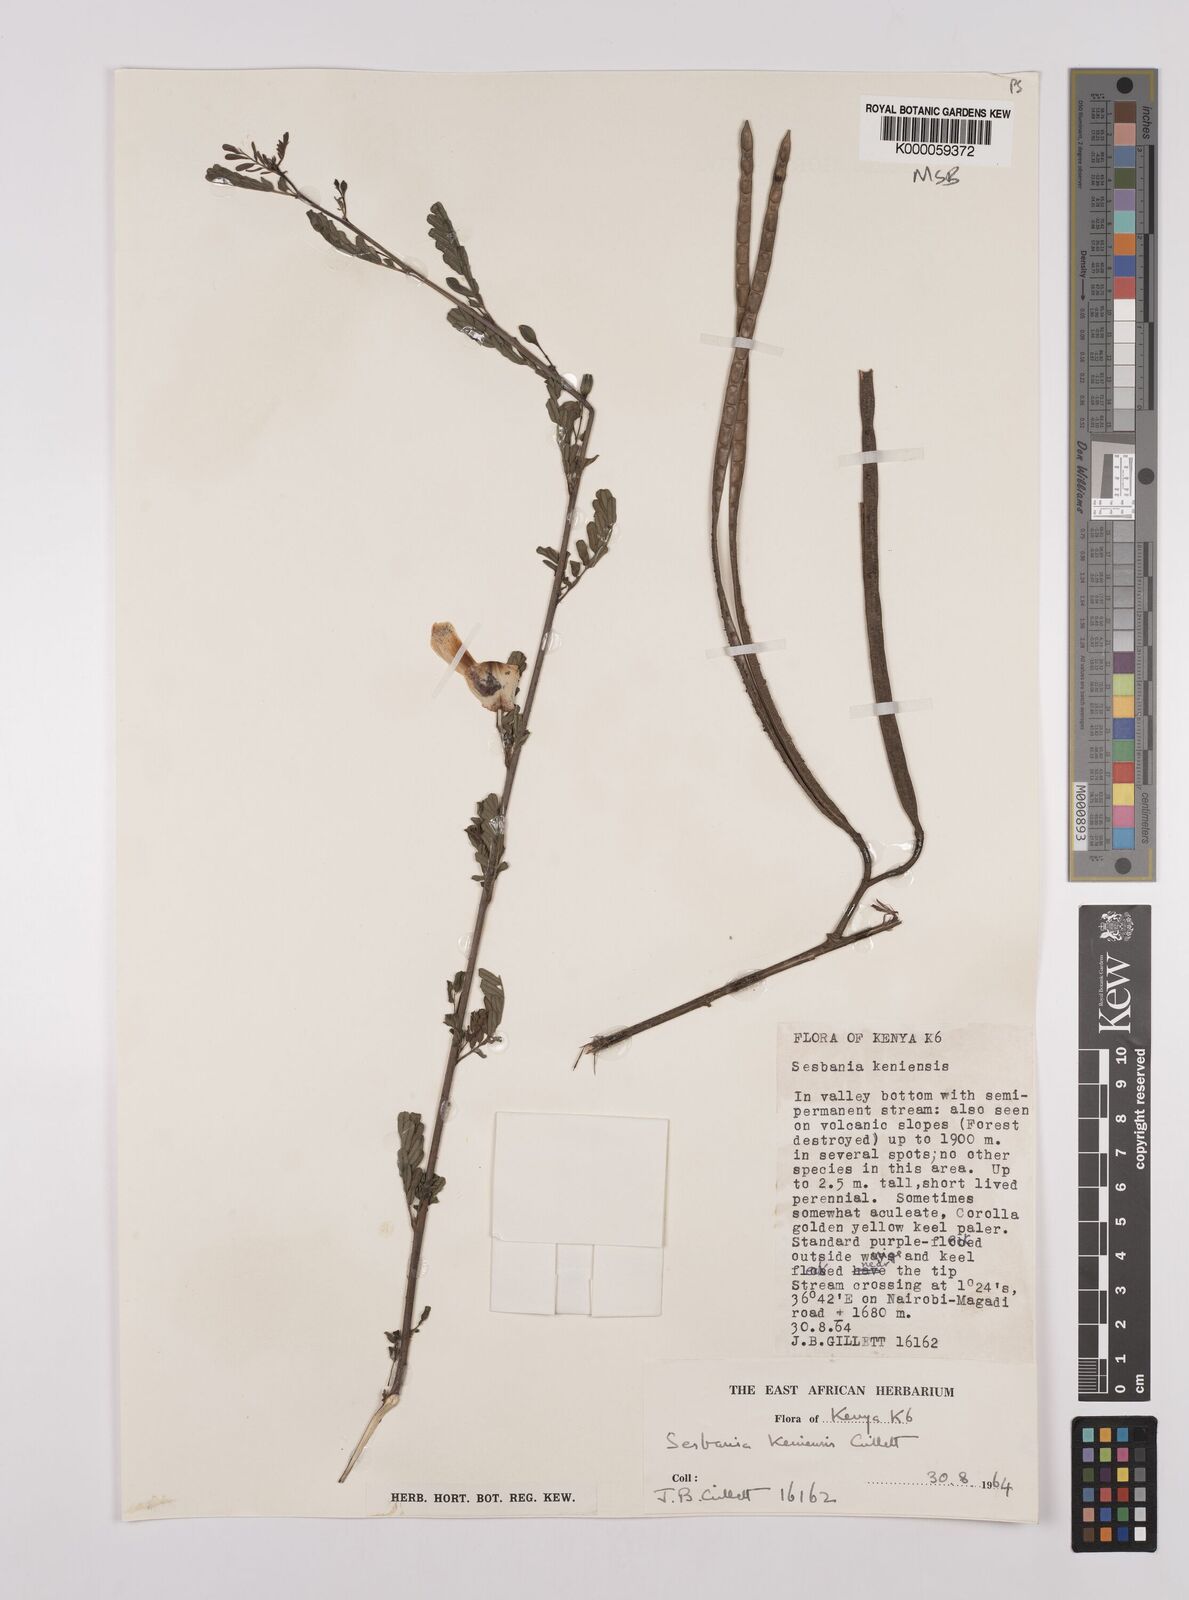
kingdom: Plantae
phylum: Tracheophyta
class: Magnoliopsida
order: Fabales
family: Fabaceae
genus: Sesbania
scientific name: Sesbania keniensis
